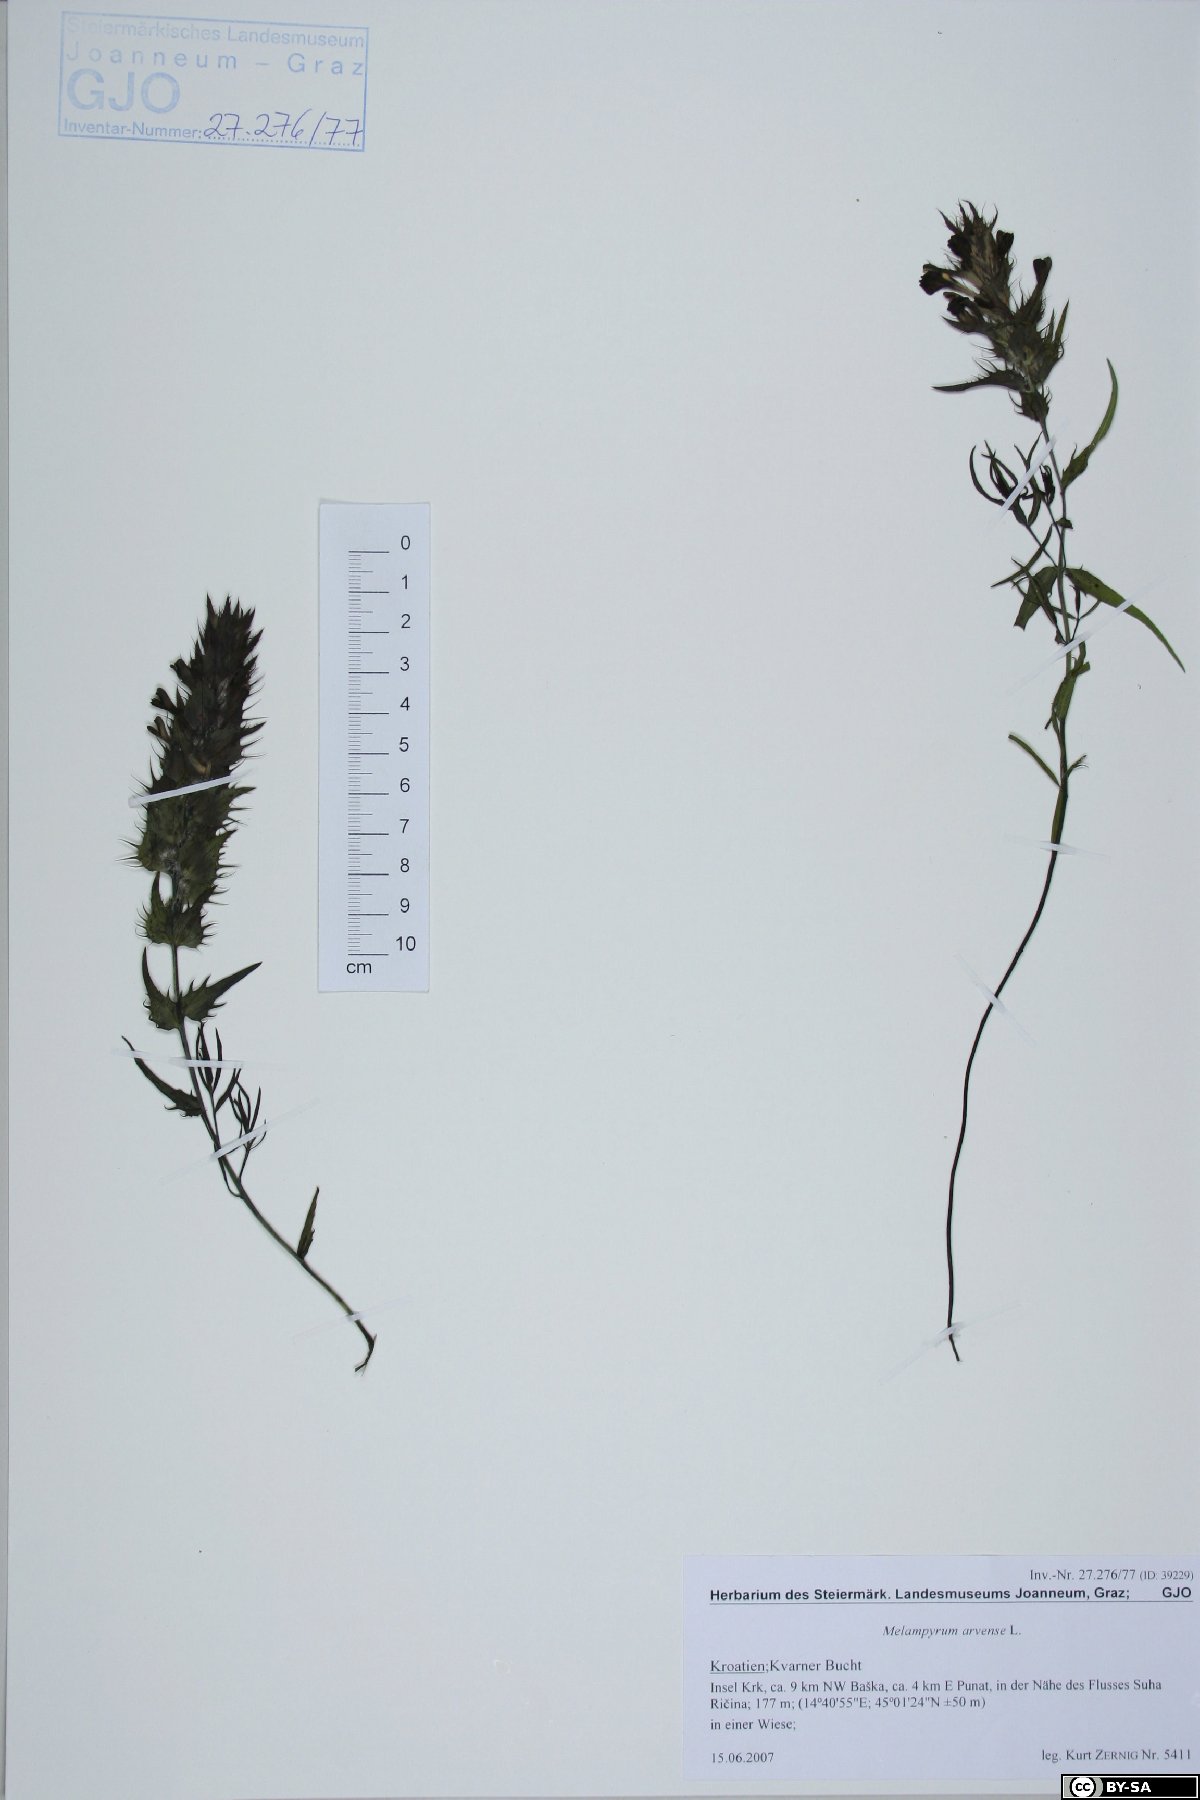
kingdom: Plantae
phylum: Tracheophyta
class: Magnoliopsida
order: Lamiales
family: Orobanchaceae
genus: Melampyrum
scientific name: Melampyrum arvense
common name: Field cow-wheat
